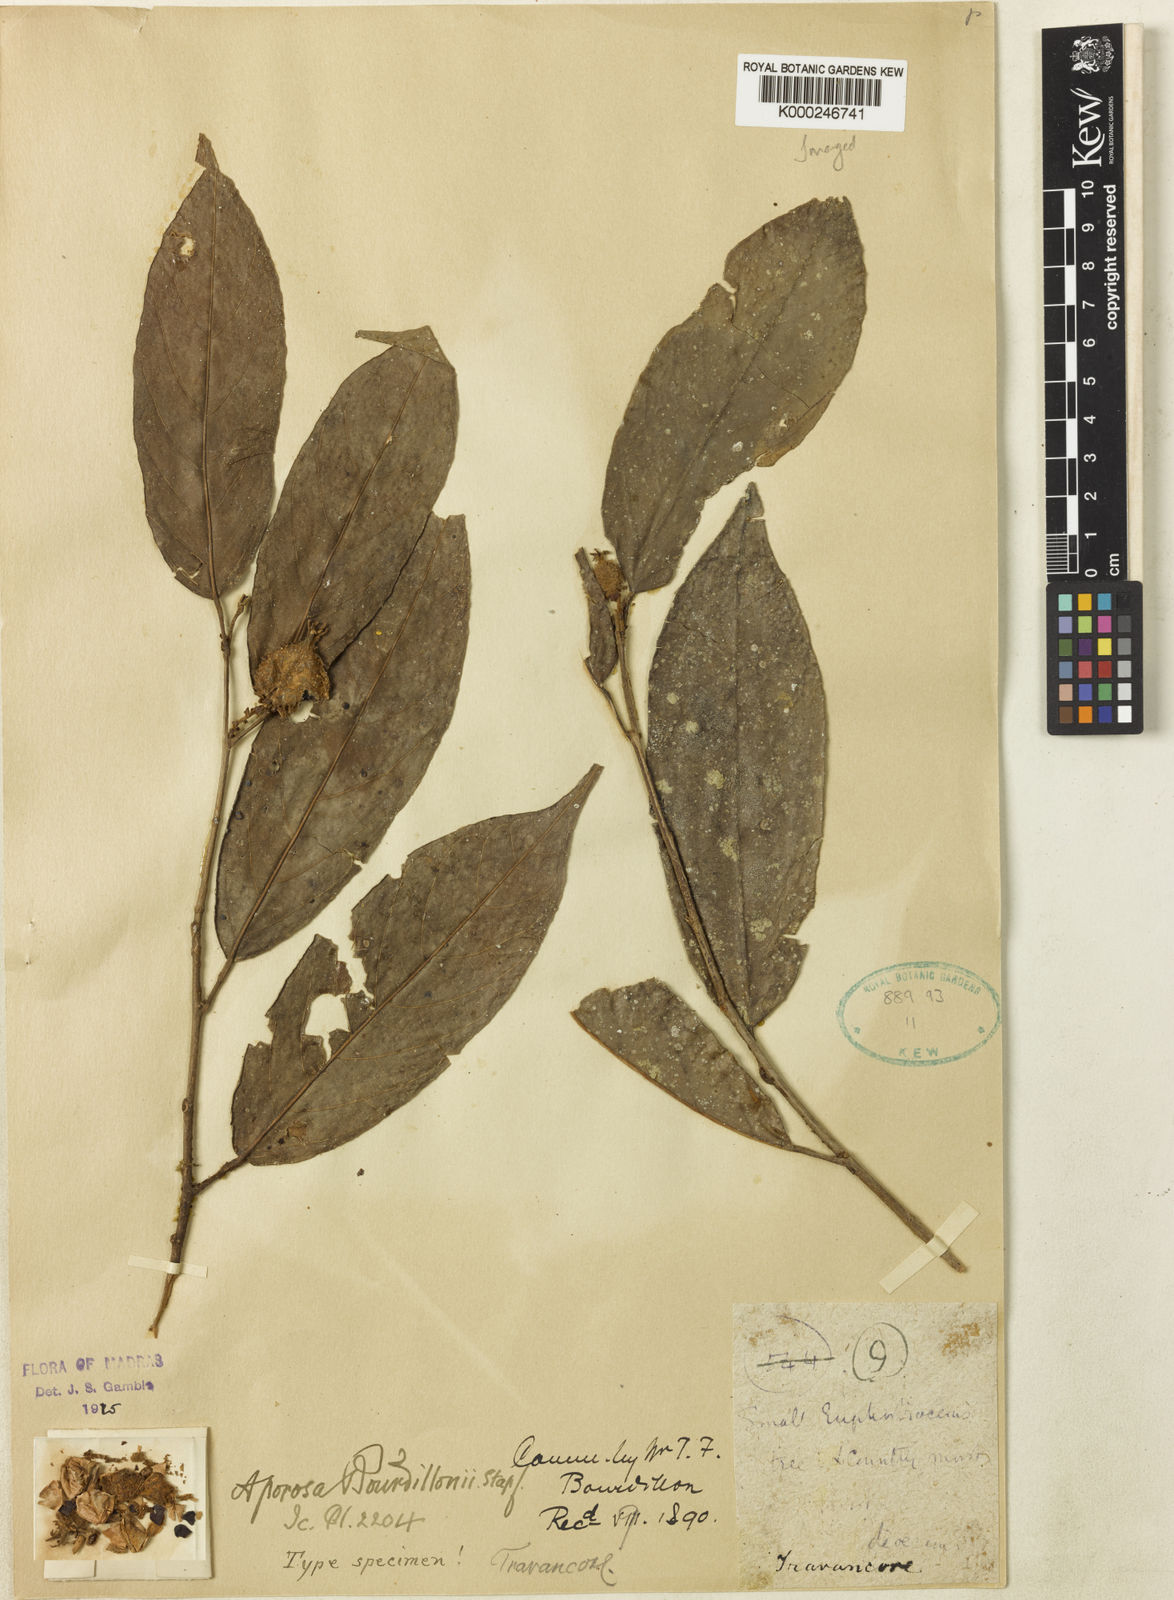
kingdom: Plantae
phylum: Tracheophyta
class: Magnoliopsida
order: Malpighiales
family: Phyllanthaceae
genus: Aporosa
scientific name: Aporosa bourdillonii
